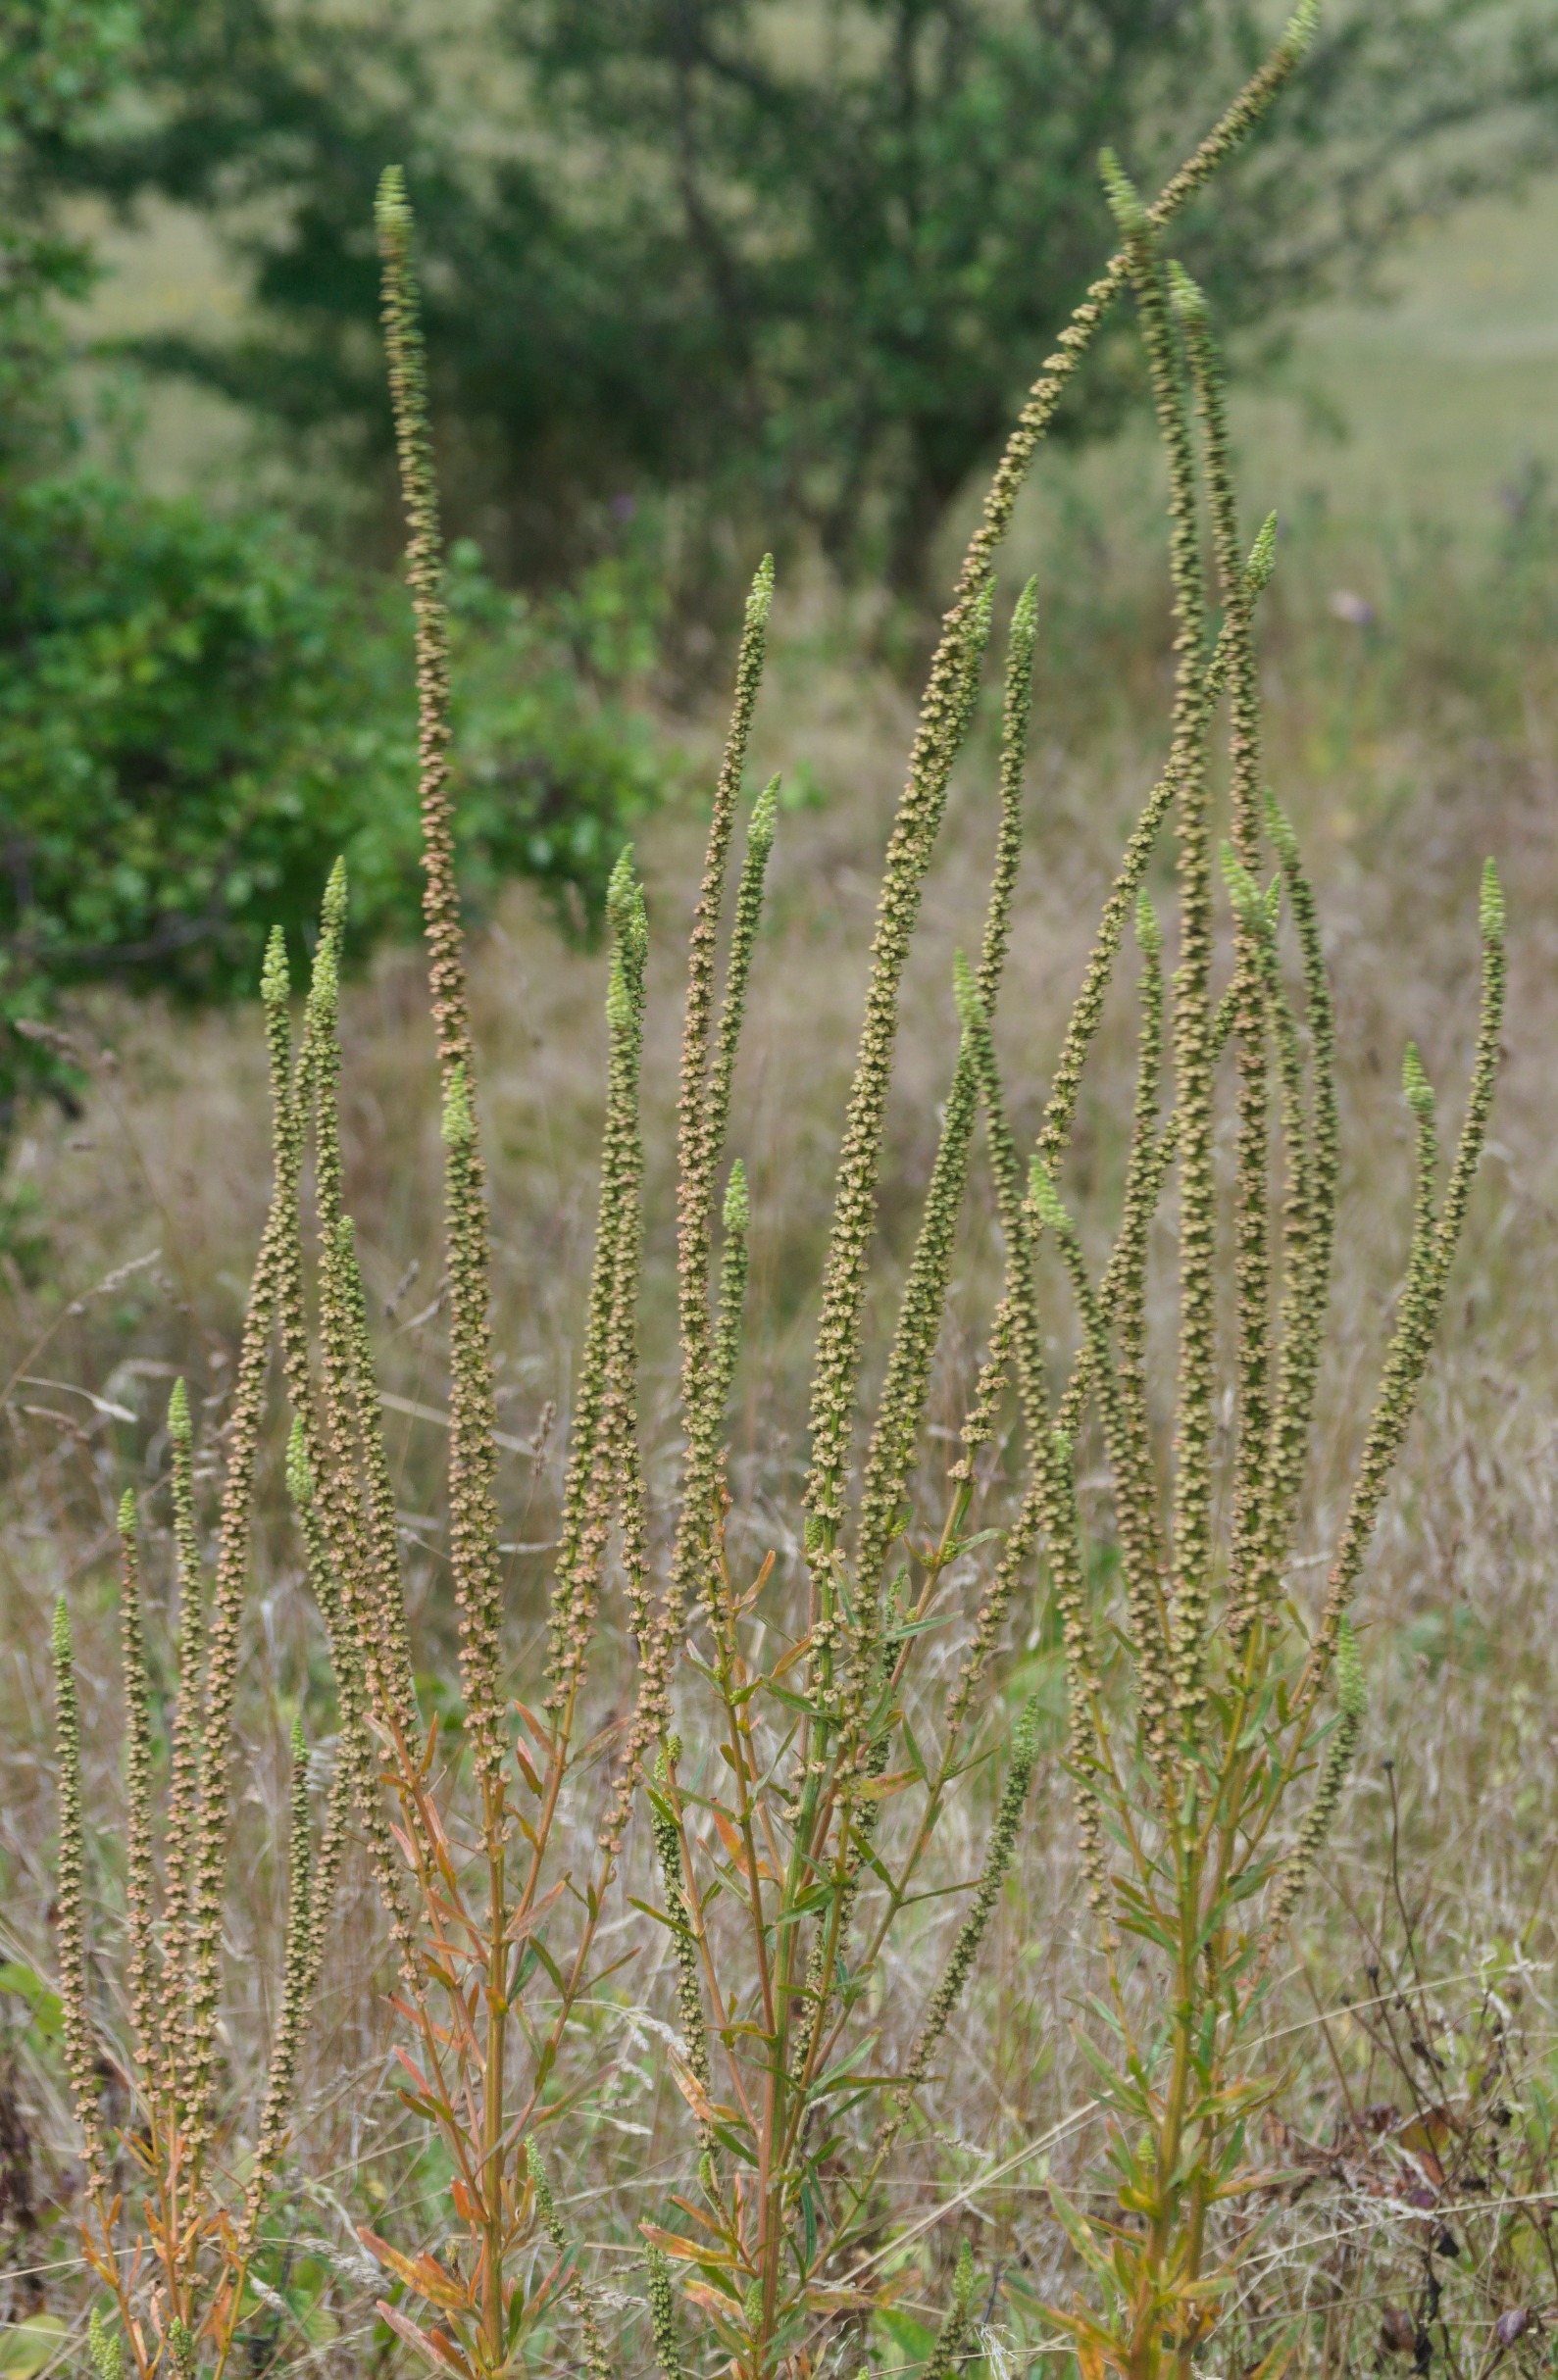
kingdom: Plantae
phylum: Tracheophyta
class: Magnoliopsida
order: Brassicales
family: Resedaceae
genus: Reseda
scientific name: Reseda luteola
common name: Farve-reseda
